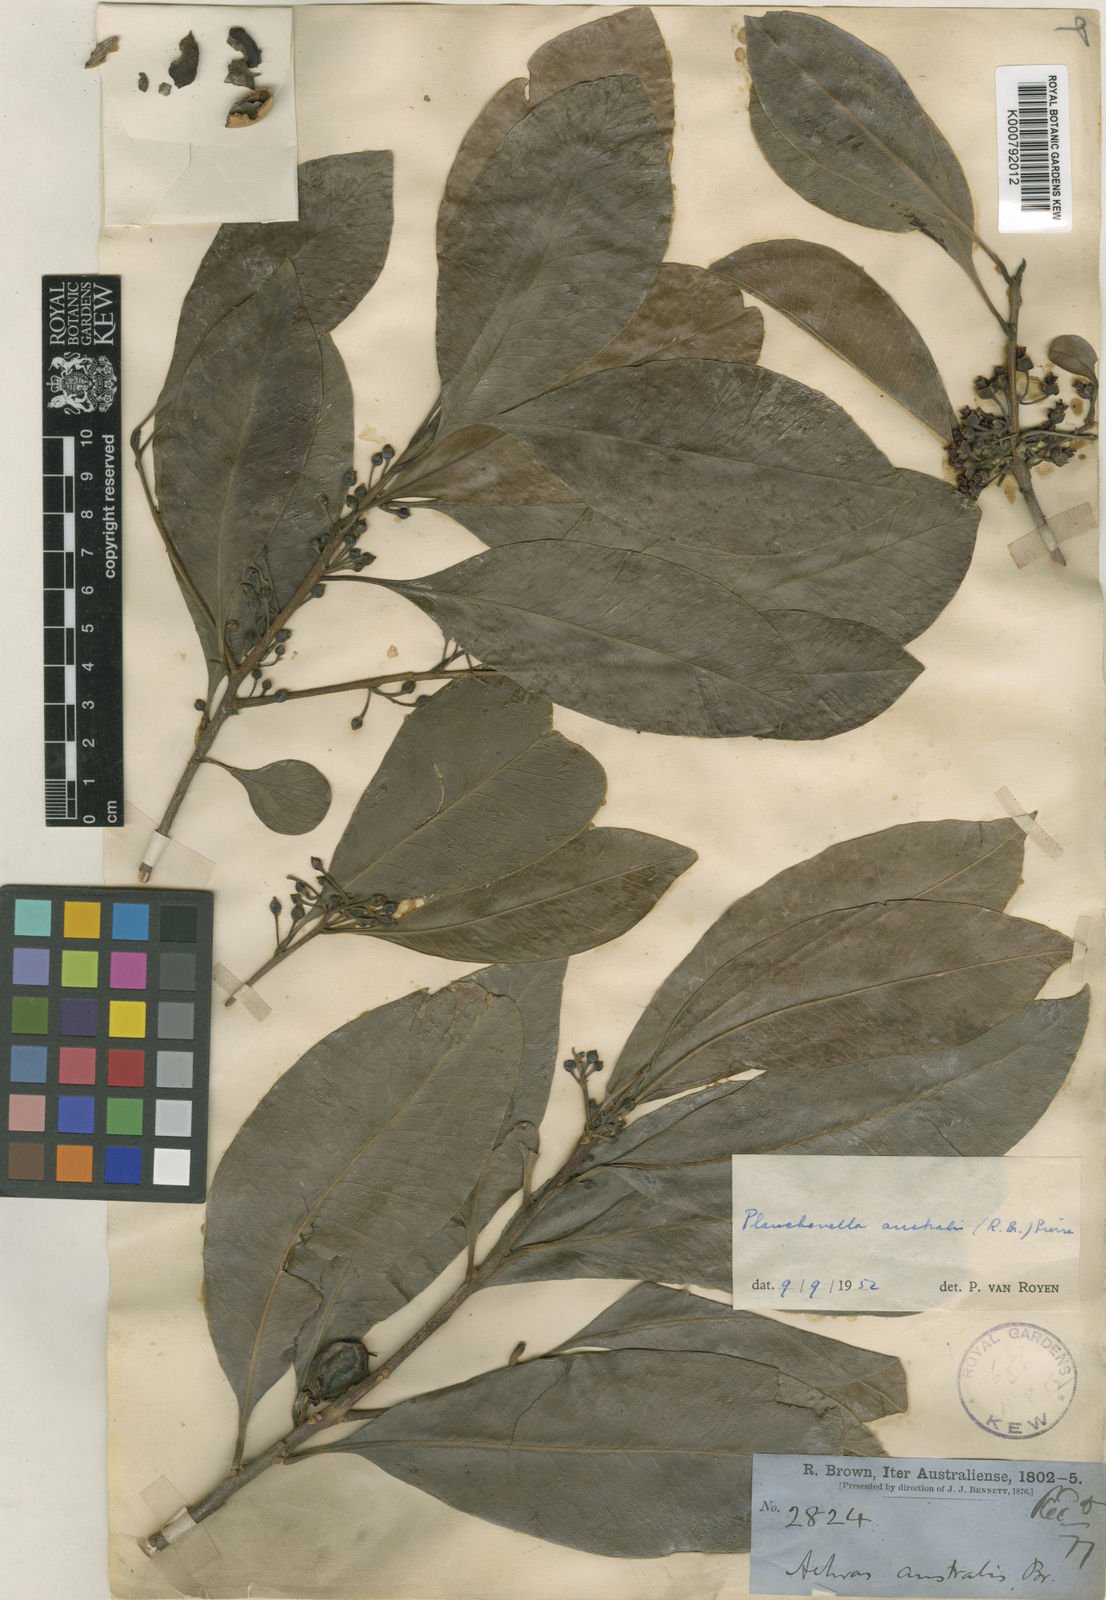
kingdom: Plantae
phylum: Tracheophyta
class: Magnoliopsida
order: Ericales
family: Sapotaceae
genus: Planchonella
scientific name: Planchonella australis
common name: Black apple
